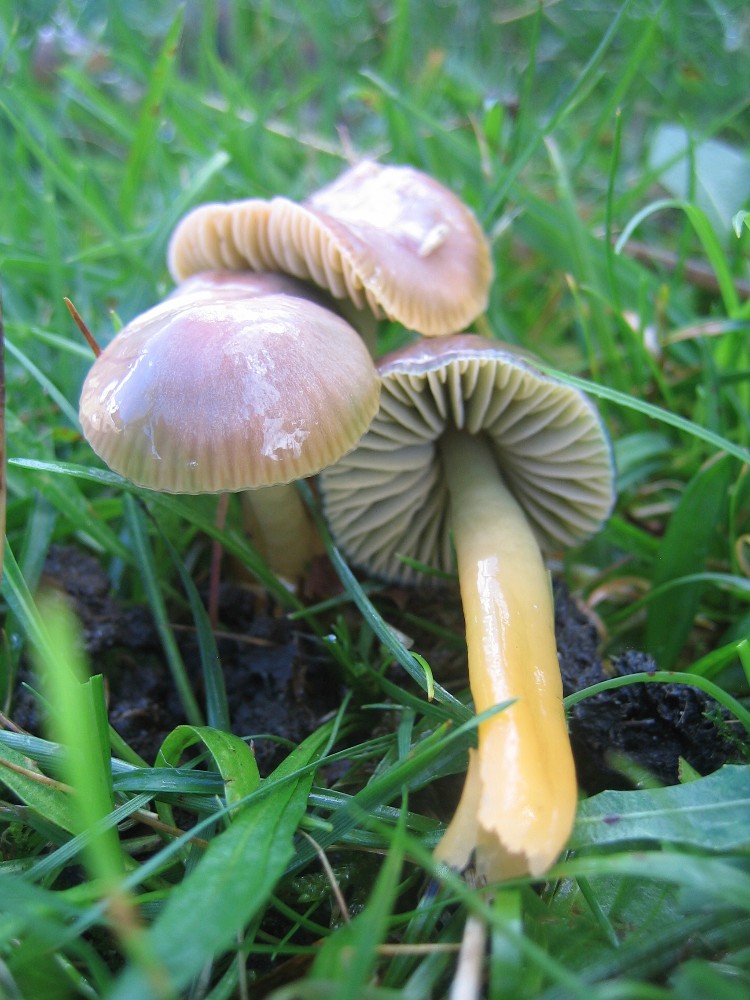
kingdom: Fungi
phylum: Basidiomycota
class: Agaricomycetes
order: Agaricales
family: Hygrophoraceae
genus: Gliophorus
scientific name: Gliophorus psittacinus
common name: papegøje-vokshat
